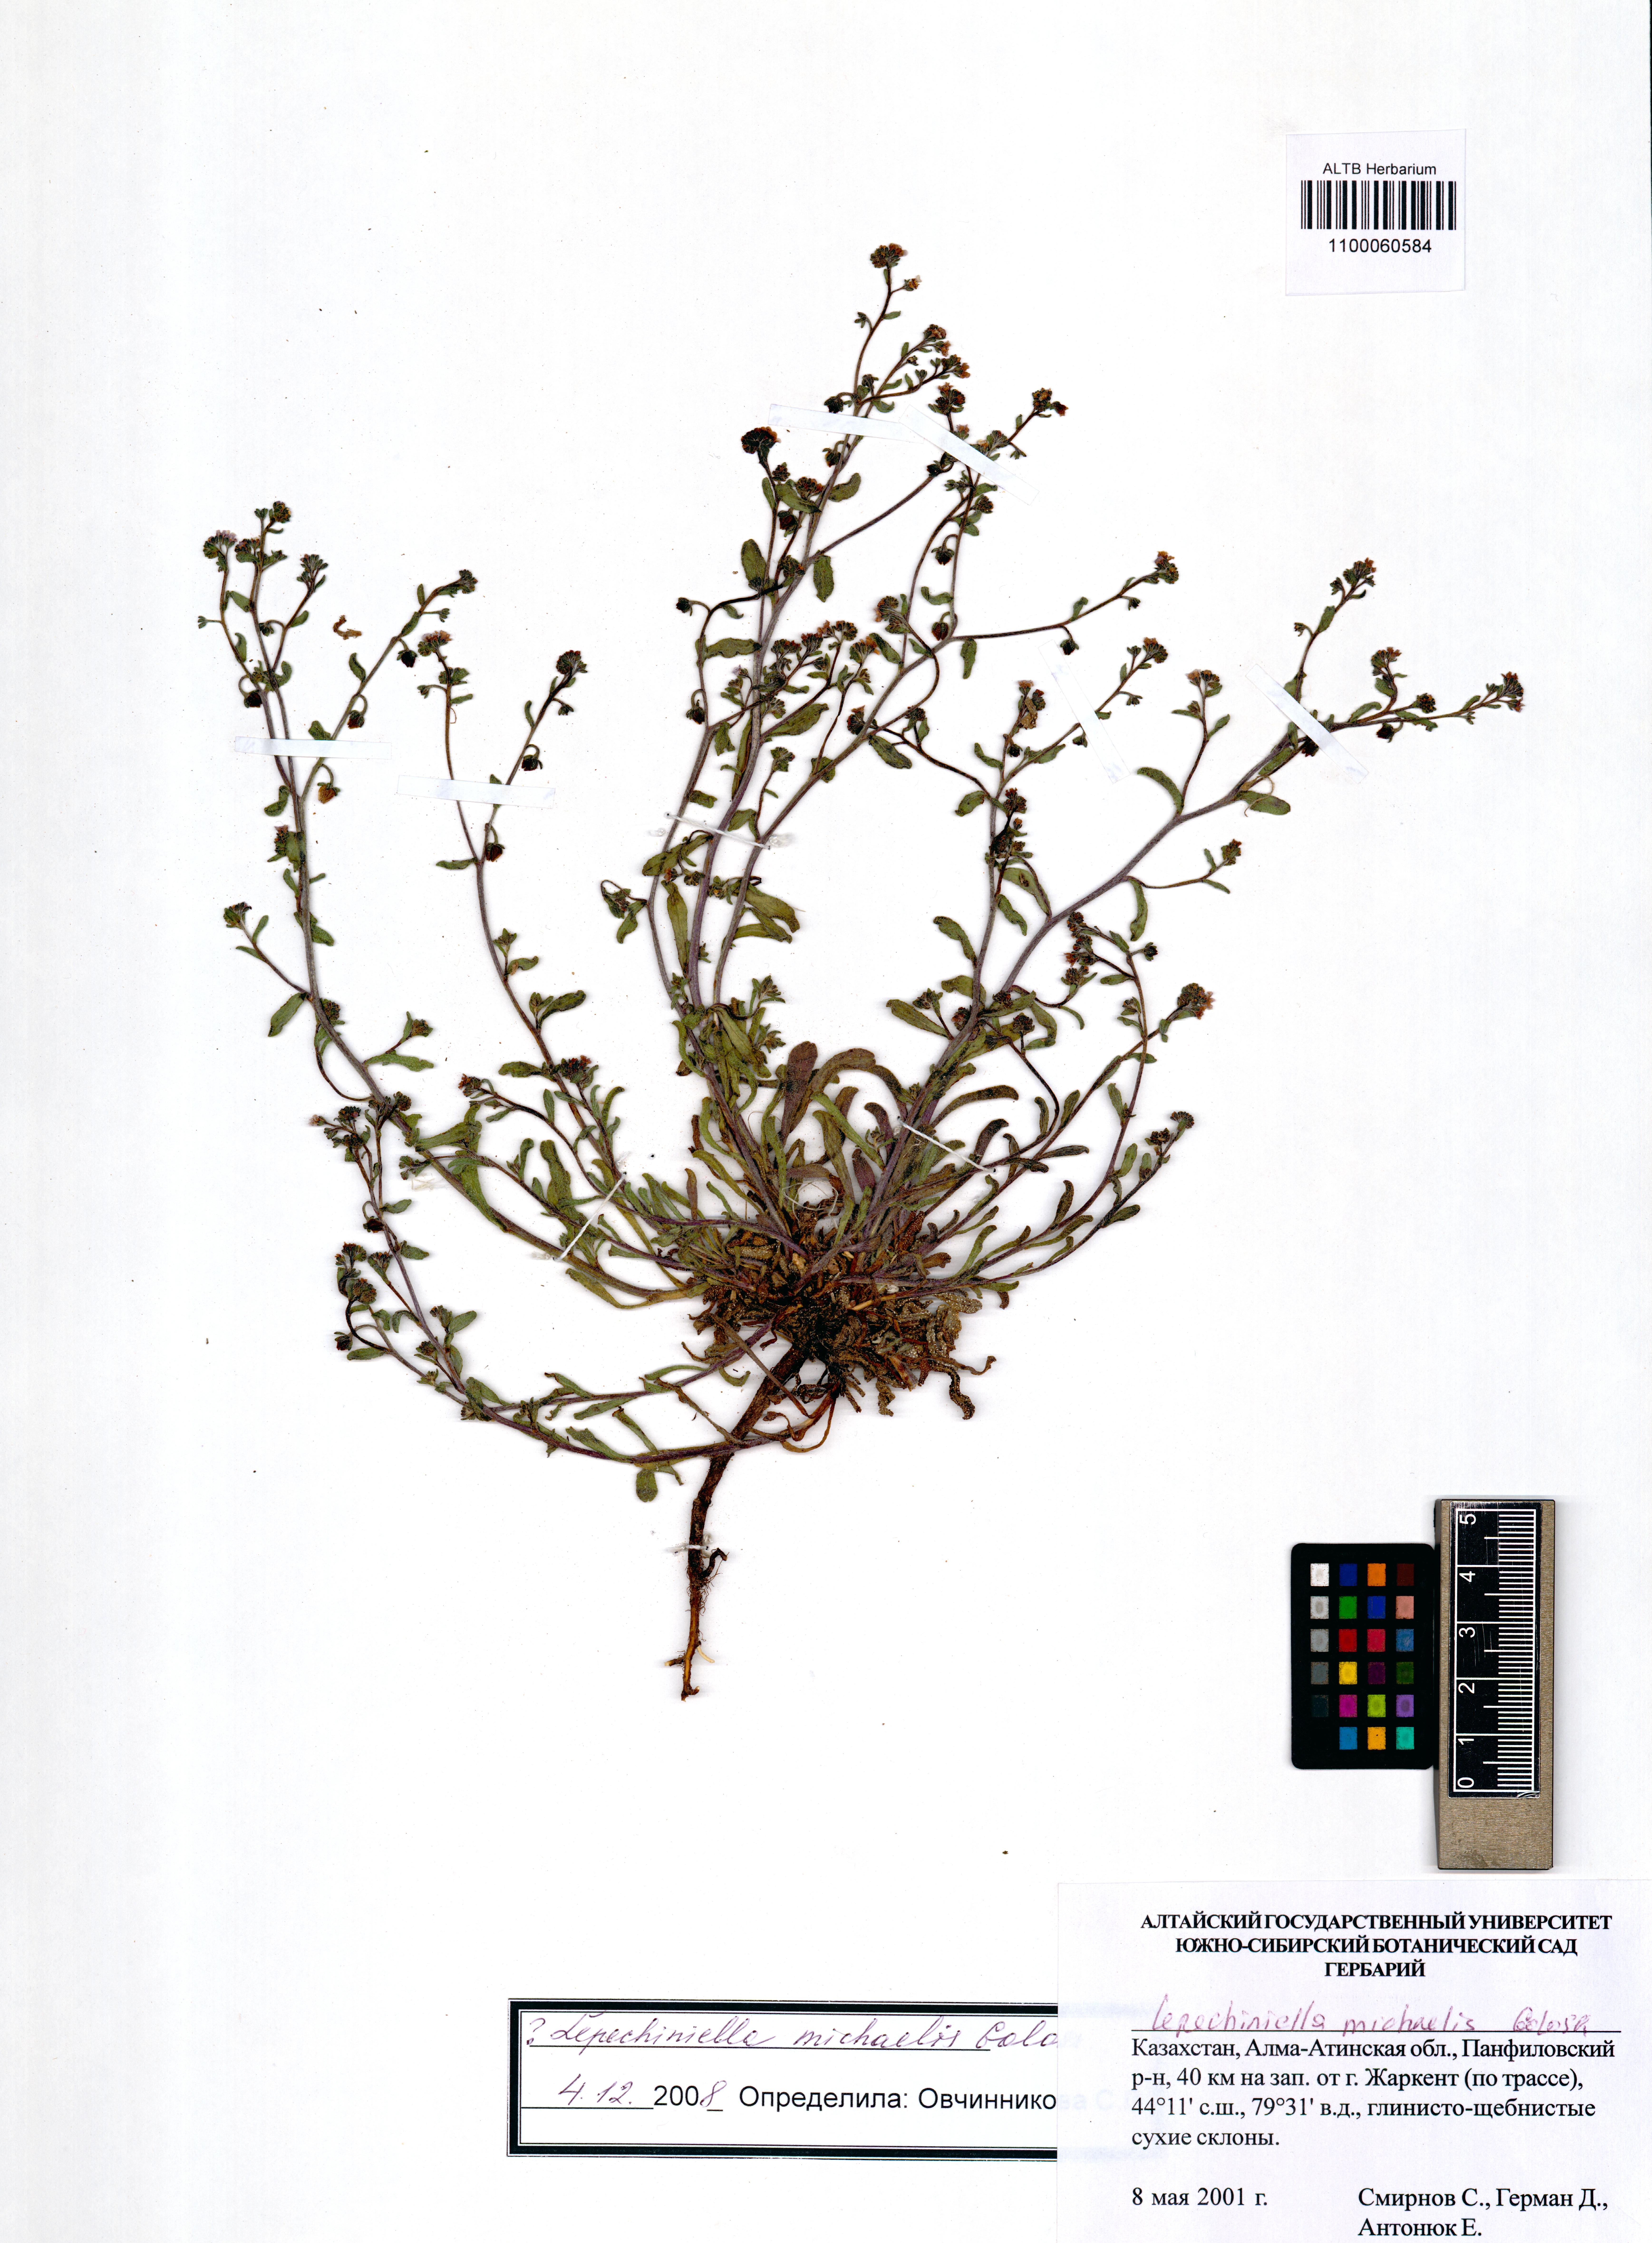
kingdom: Plantae
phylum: Tracheophyta
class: Magnoliopsida
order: Boraginales
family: Boraginaceae
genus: Lepechiniella
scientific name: Lepechiniella michaelis
